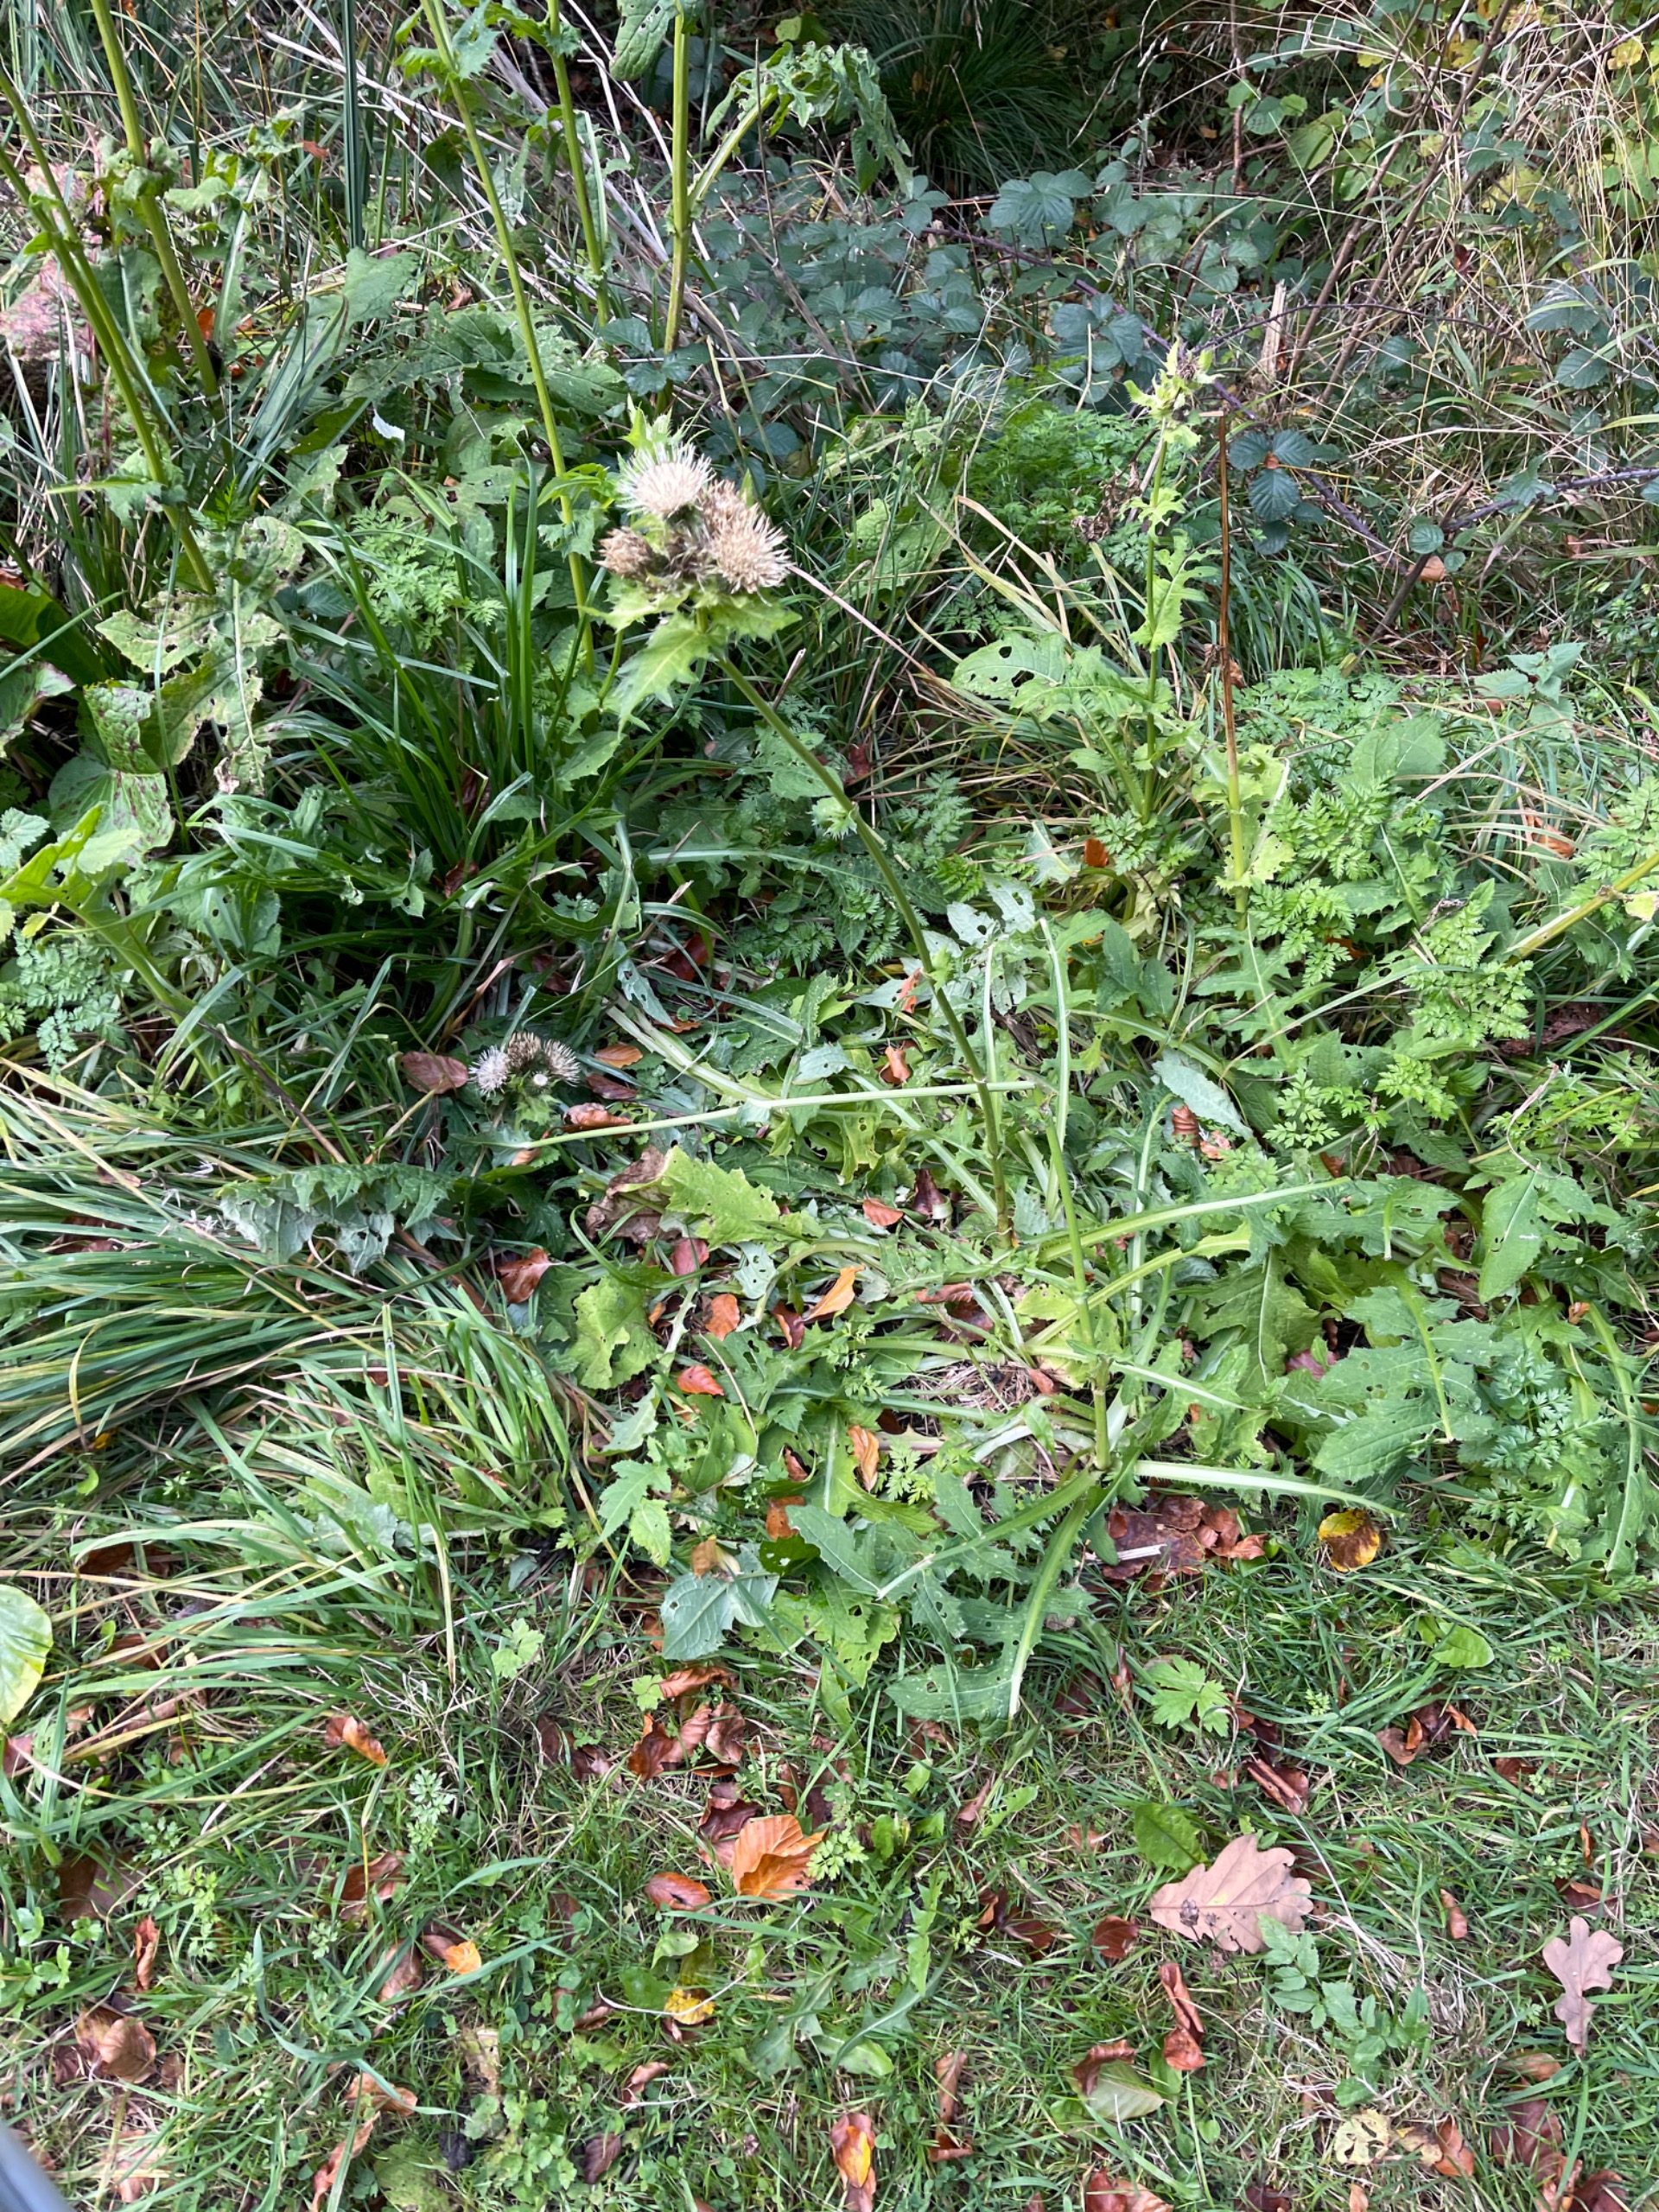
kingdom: Plantae
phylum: Tracheophyta
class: Magnoliopsida
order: Asterales
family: Asteraceae
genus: Cirsium
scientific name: Cirsium oleraceum
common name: Kål-tidsel
